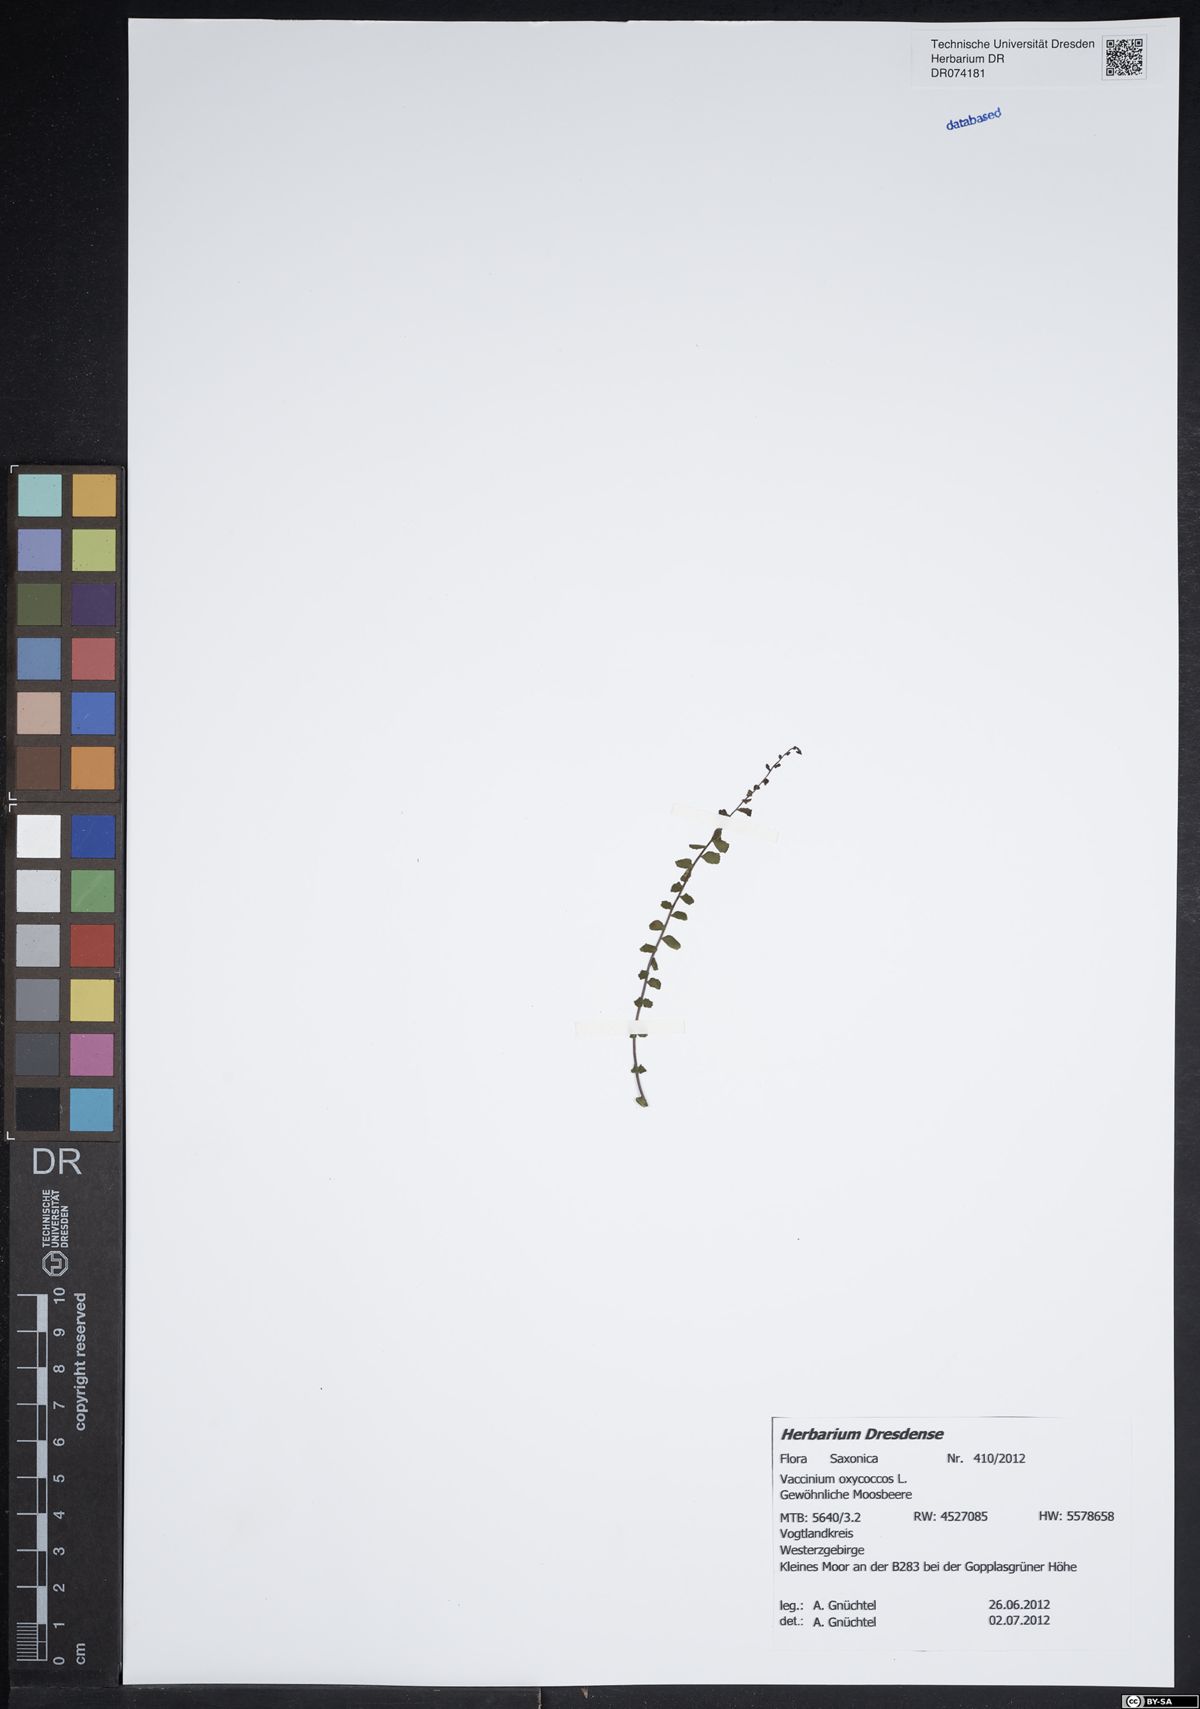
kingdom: Plantae
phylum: Tracheophyta
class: Magnoliopsida
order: Ericales
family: Ericaceae
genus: Vaccinium
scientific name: Vaccinium oxycoccos
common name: Cranberry
